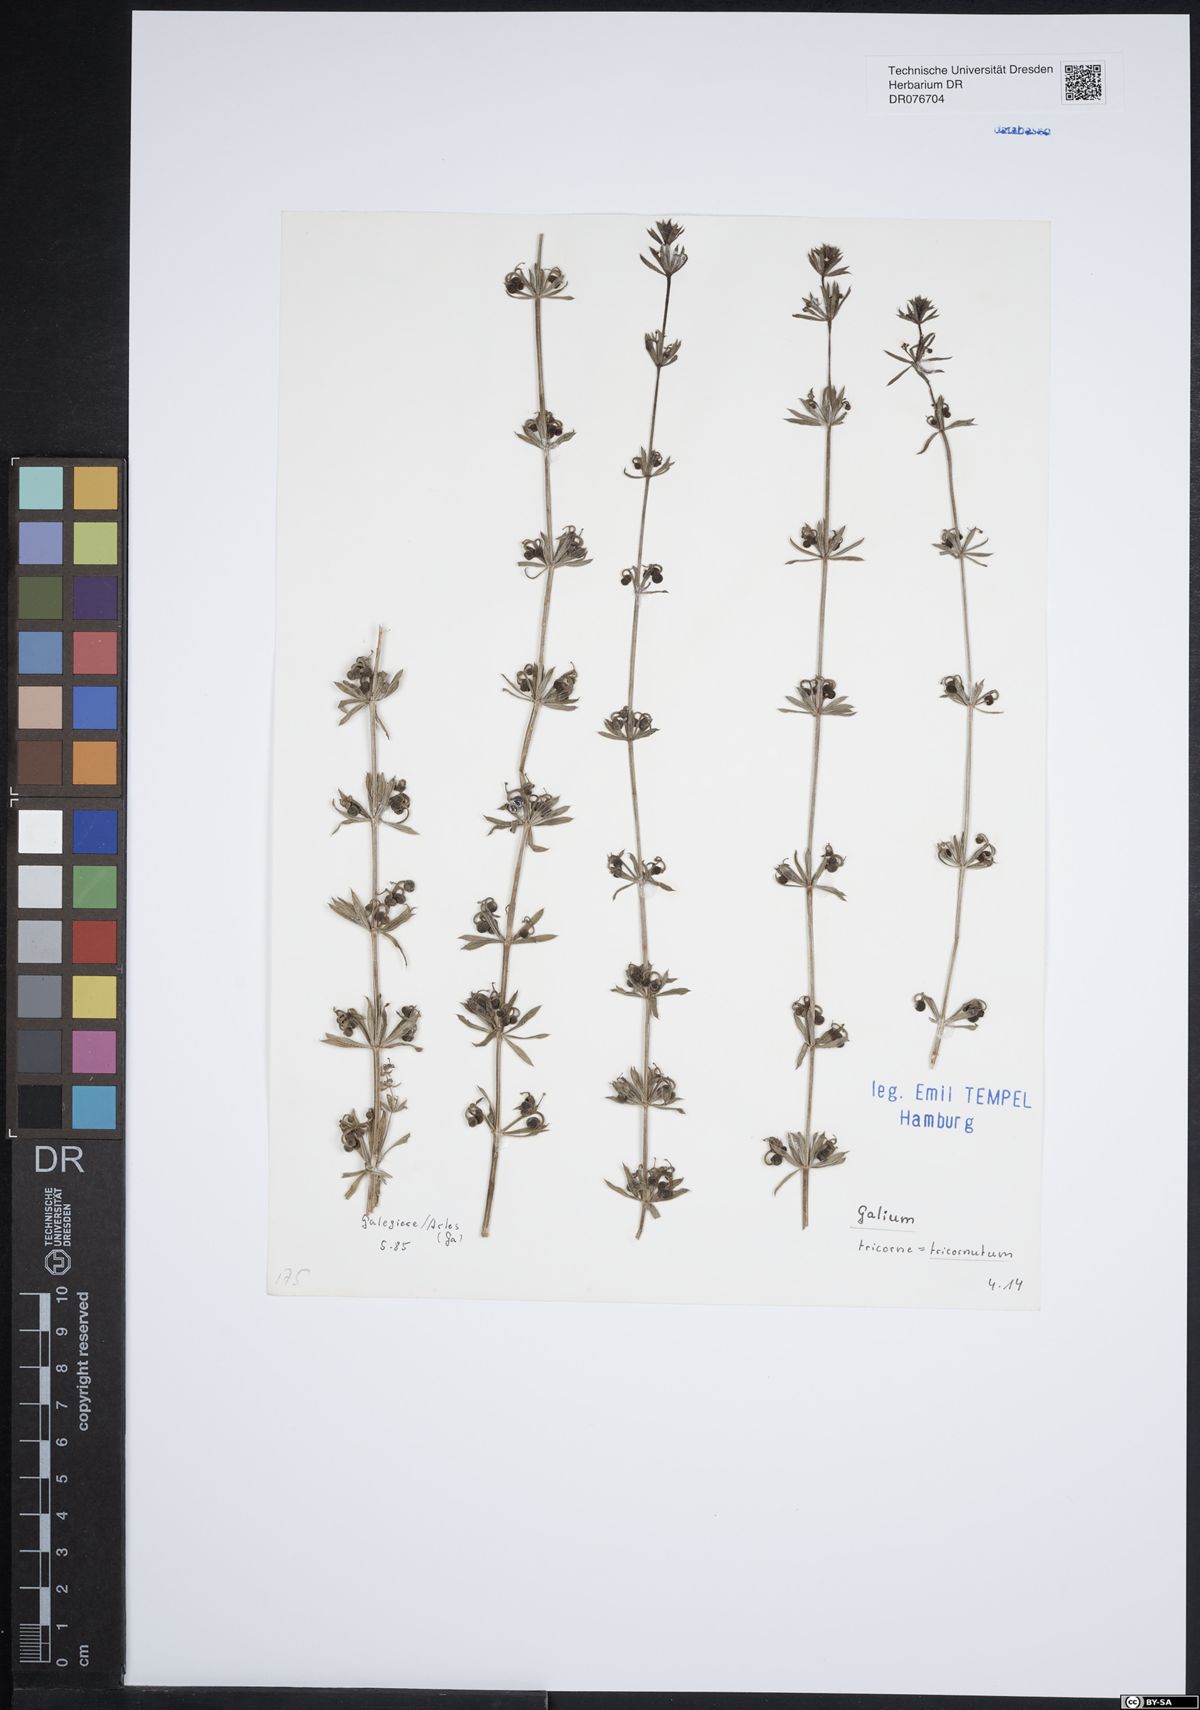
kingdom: Plantae
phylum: Tracheophyta
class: Magnoliopsida
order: Gentianales
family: Rubiaceae
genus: Galium
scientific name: Galium tricornutum
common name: Corn cleavers
